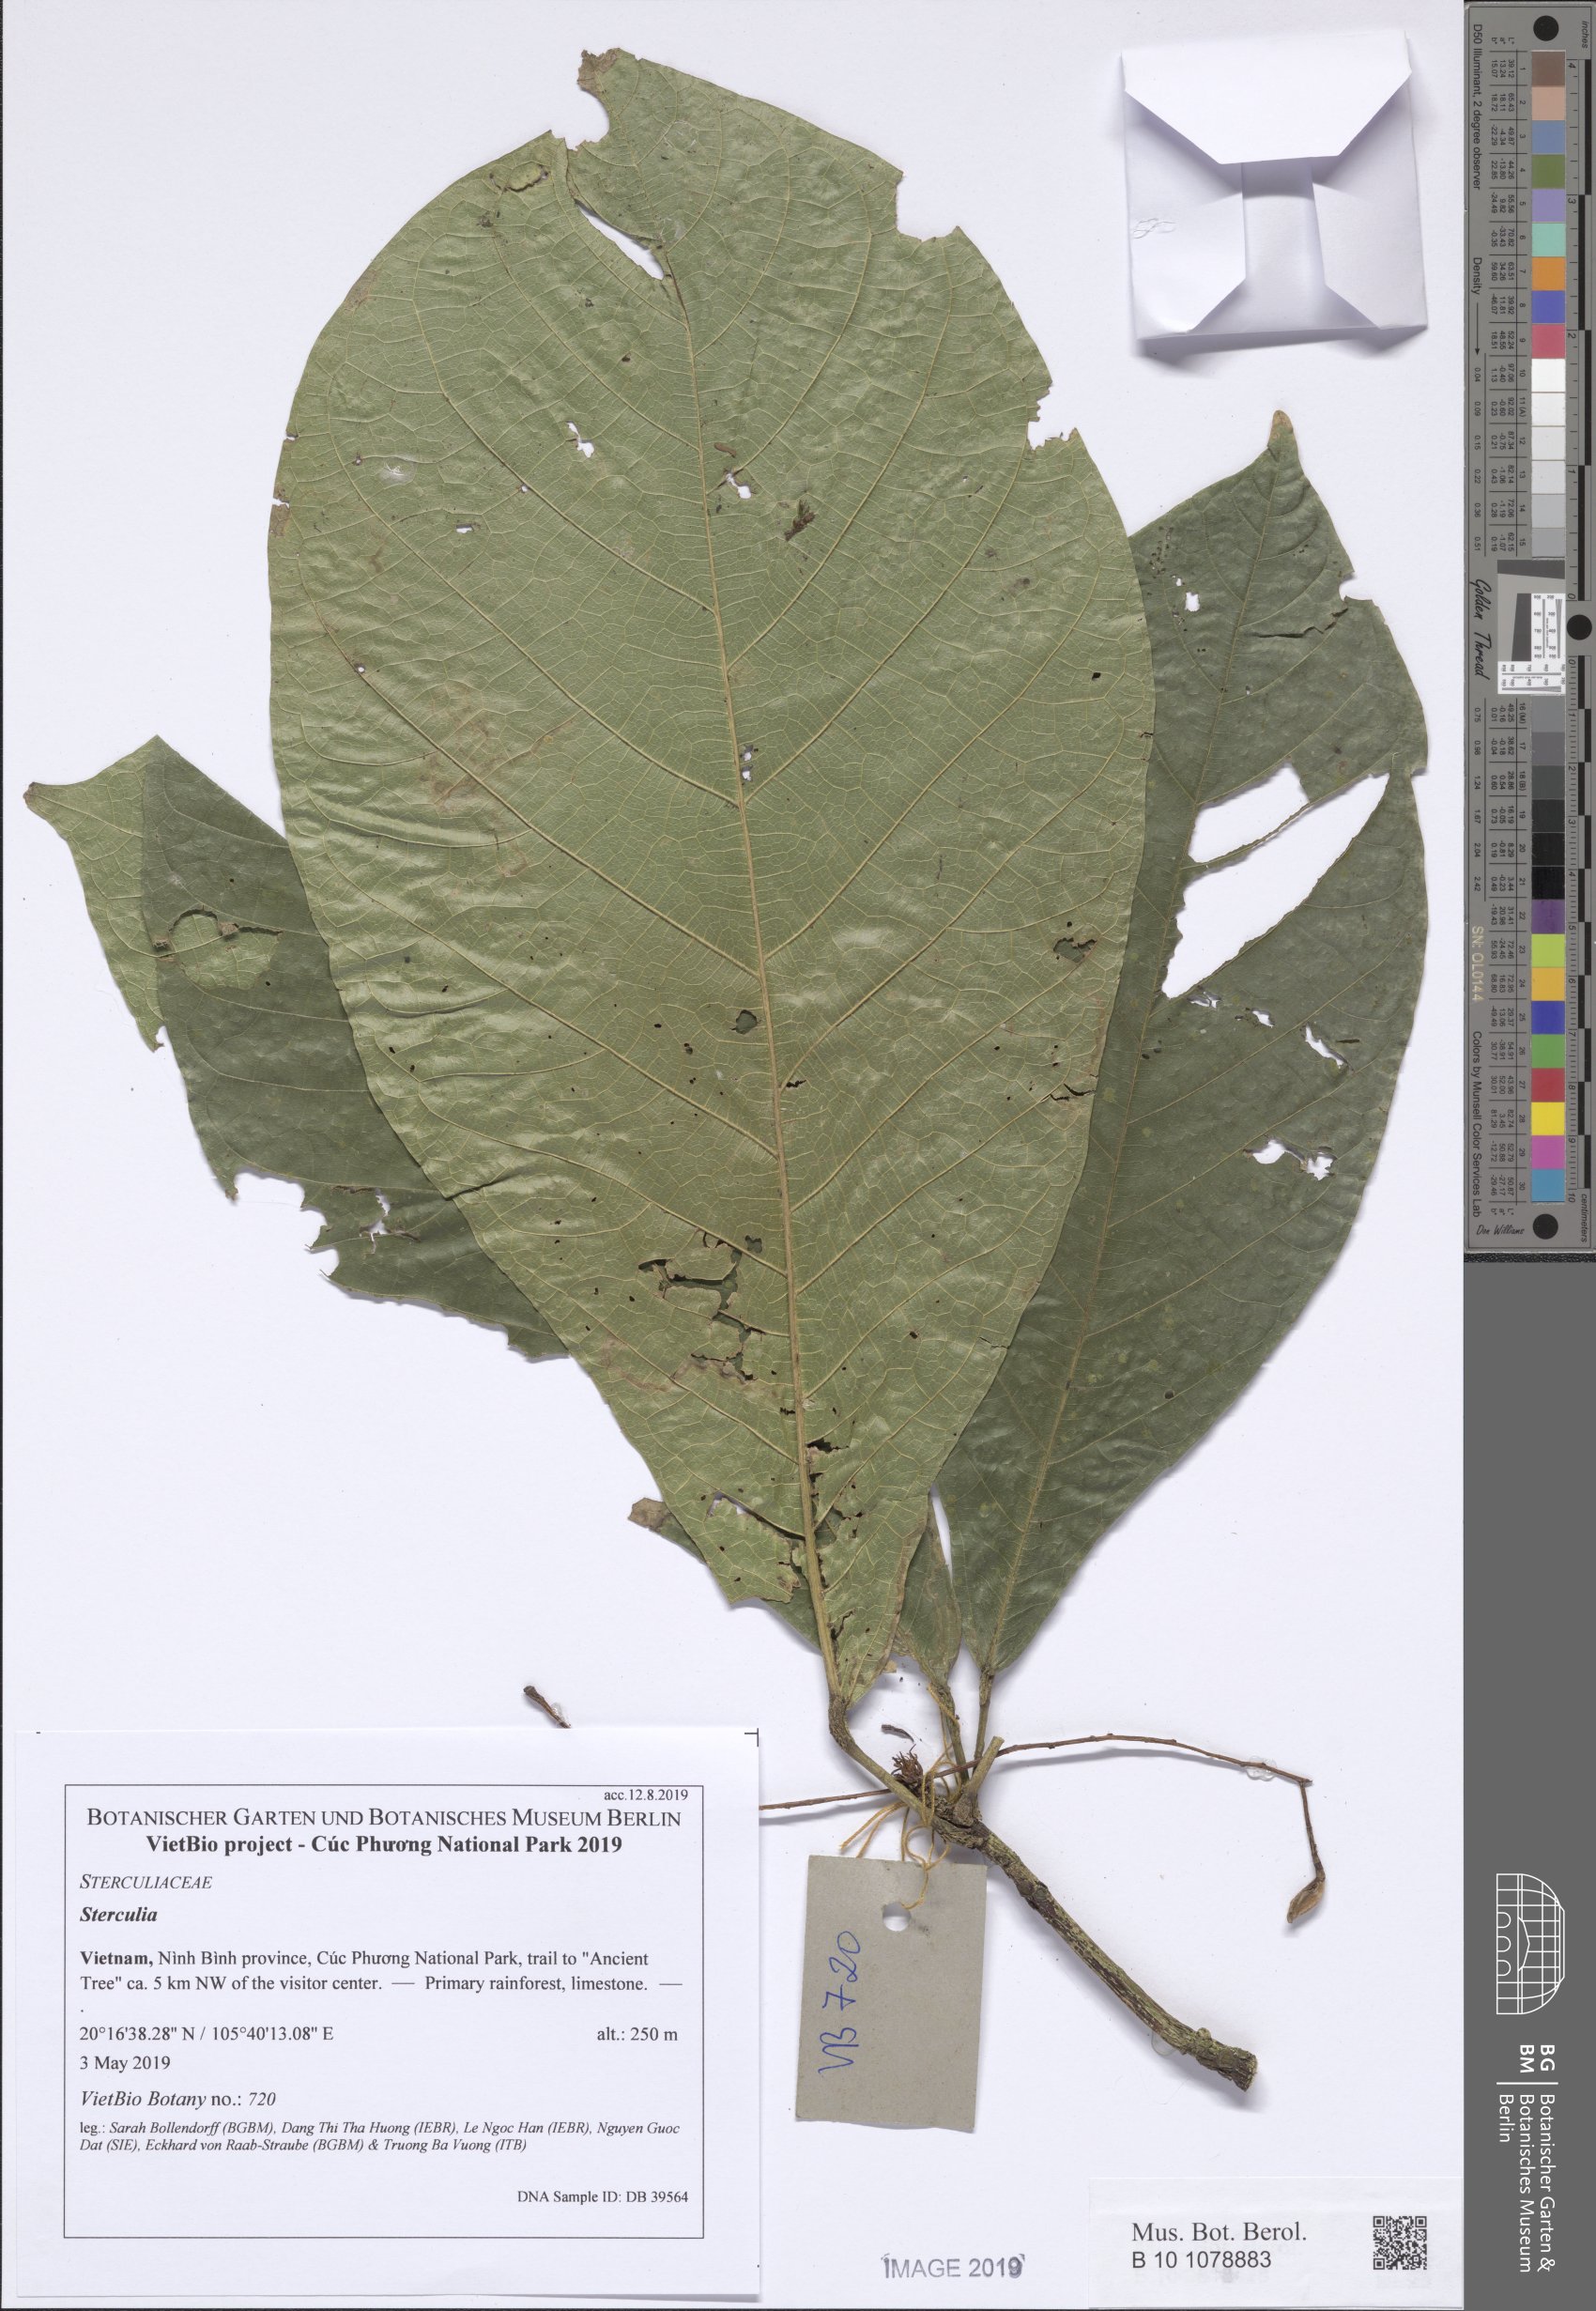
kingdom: Plantae
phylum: Tracheophyta
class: Magnoliopsida
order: Malvales
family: Malvaceae
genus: Sterculia
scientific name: Sterculia
